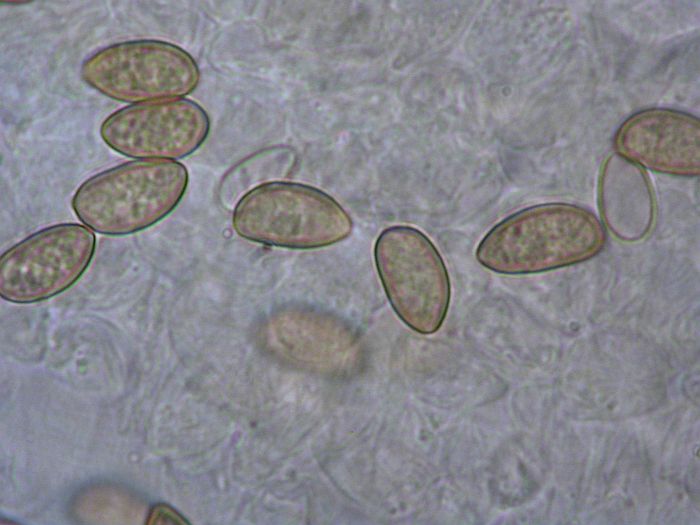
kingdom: Fungi
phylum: Basidiomycota
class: Agaricomycetes
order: Agaricales
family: Inocybaceae
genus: Inocybe
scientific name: Inocybe
